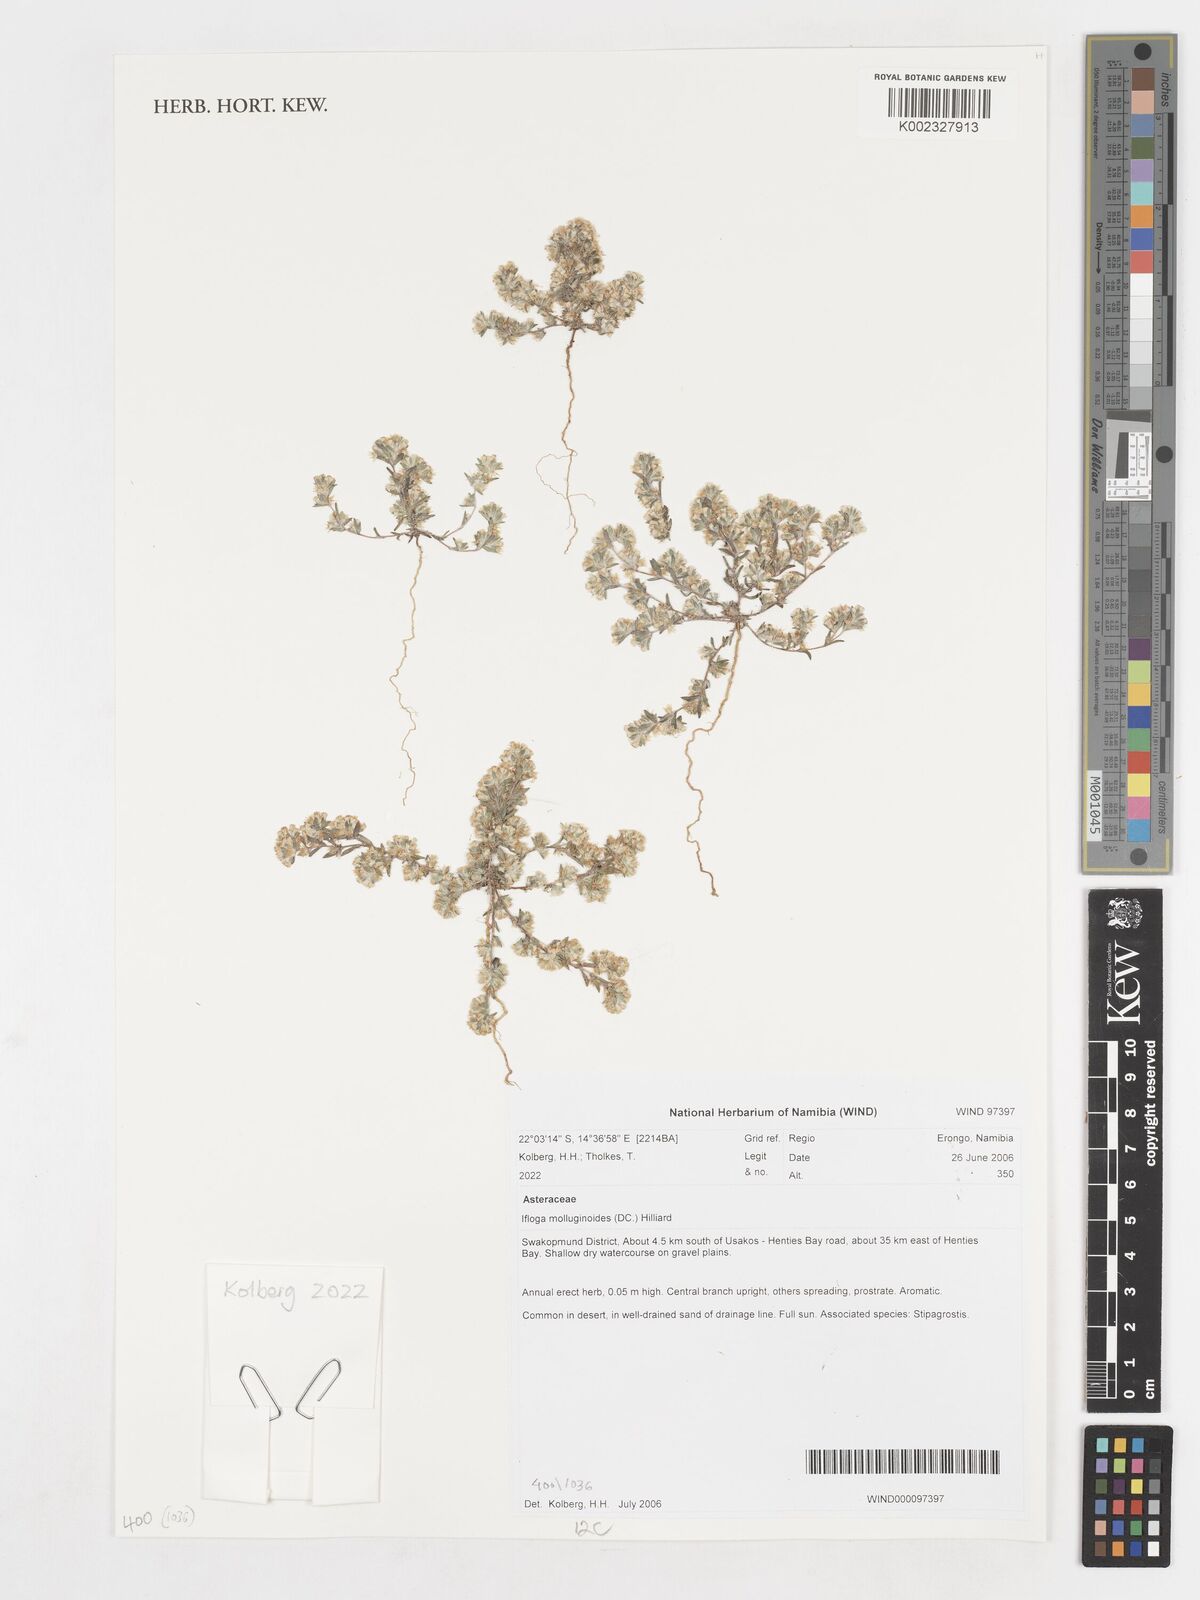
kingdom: Plantae
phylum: Tracheophyta
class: Magnoliopsida
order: Asterales
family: Asteraceae
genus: Ifloga
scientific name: Ifloga molluginoides
